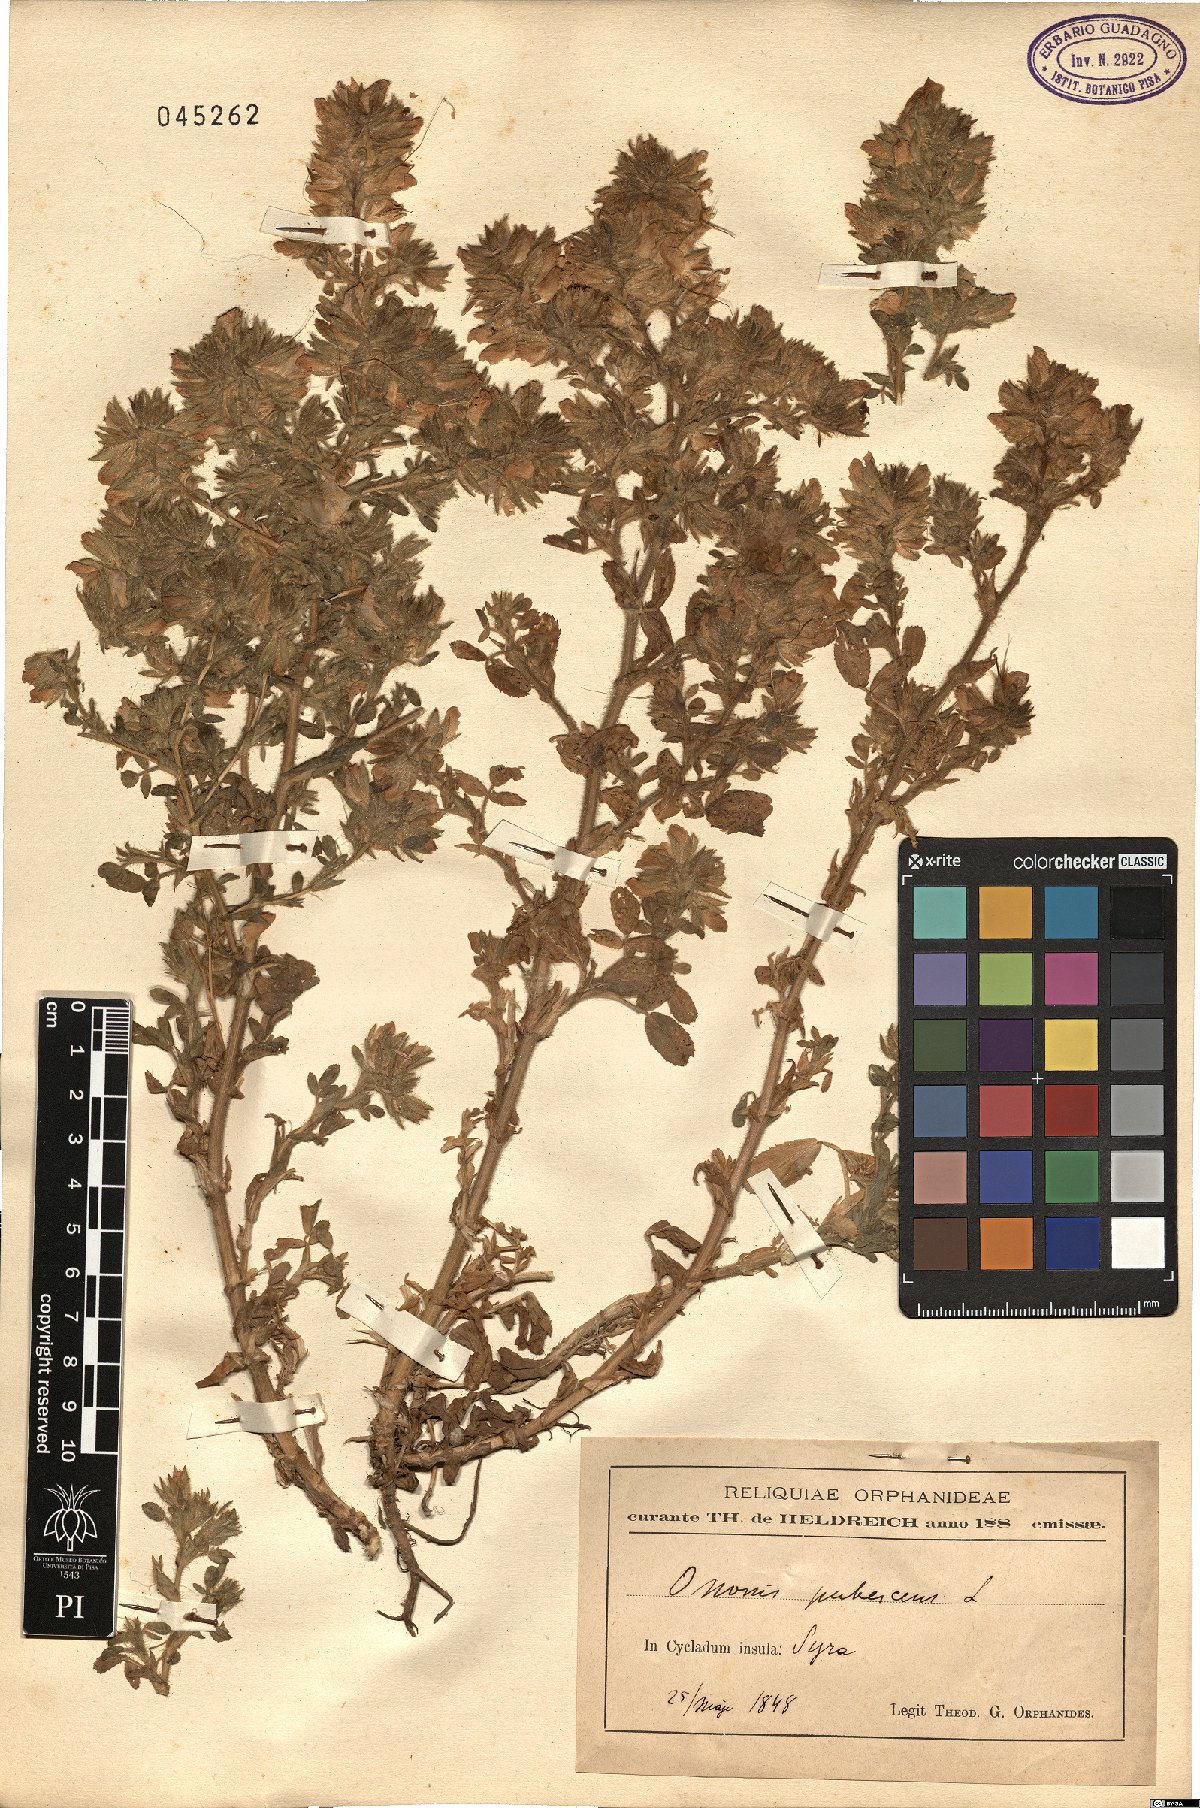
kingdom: Plantae
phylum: Tracheophyta
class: Magnoliopsida
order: Fabales
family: Fabaceae
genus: Ononis
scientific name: Ononis pubescens
